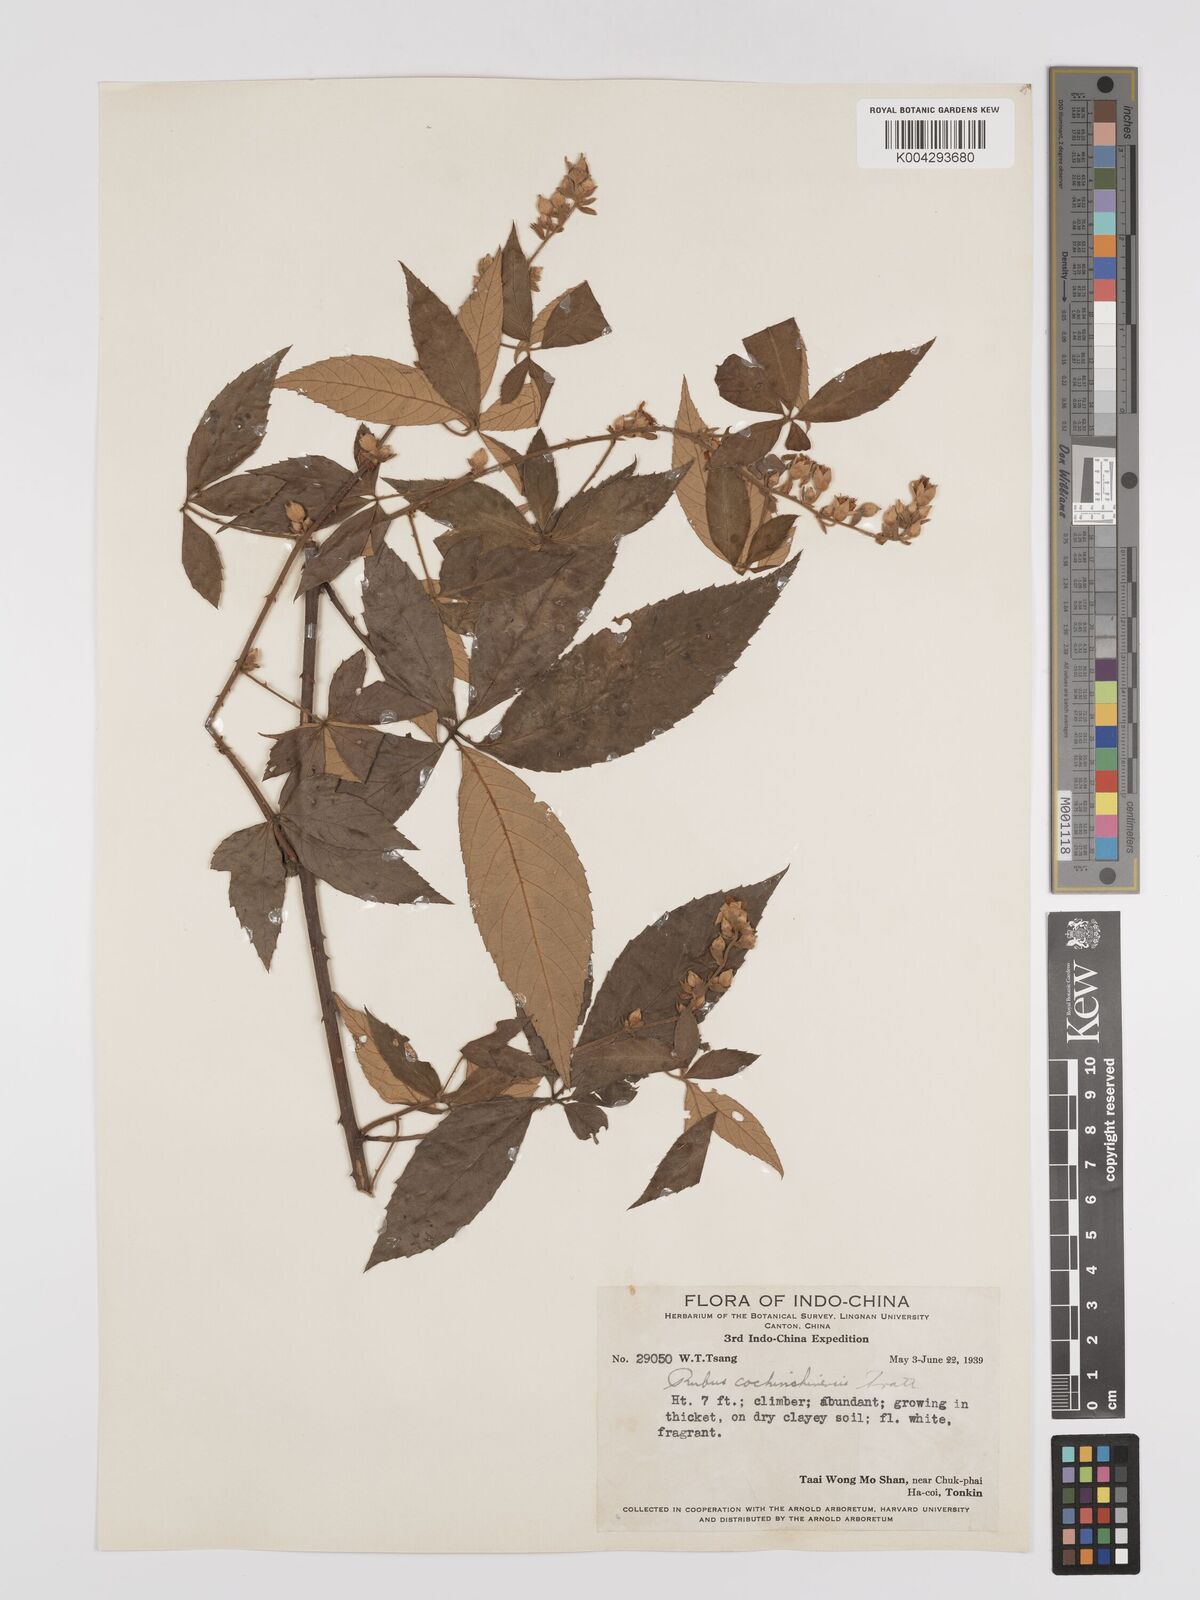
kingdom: Plantae
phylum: Tracheophyta
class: Magnoliopsida
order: Rosales
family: Rosaceae
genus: Rubus
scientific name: Rubus cochinchinensis
